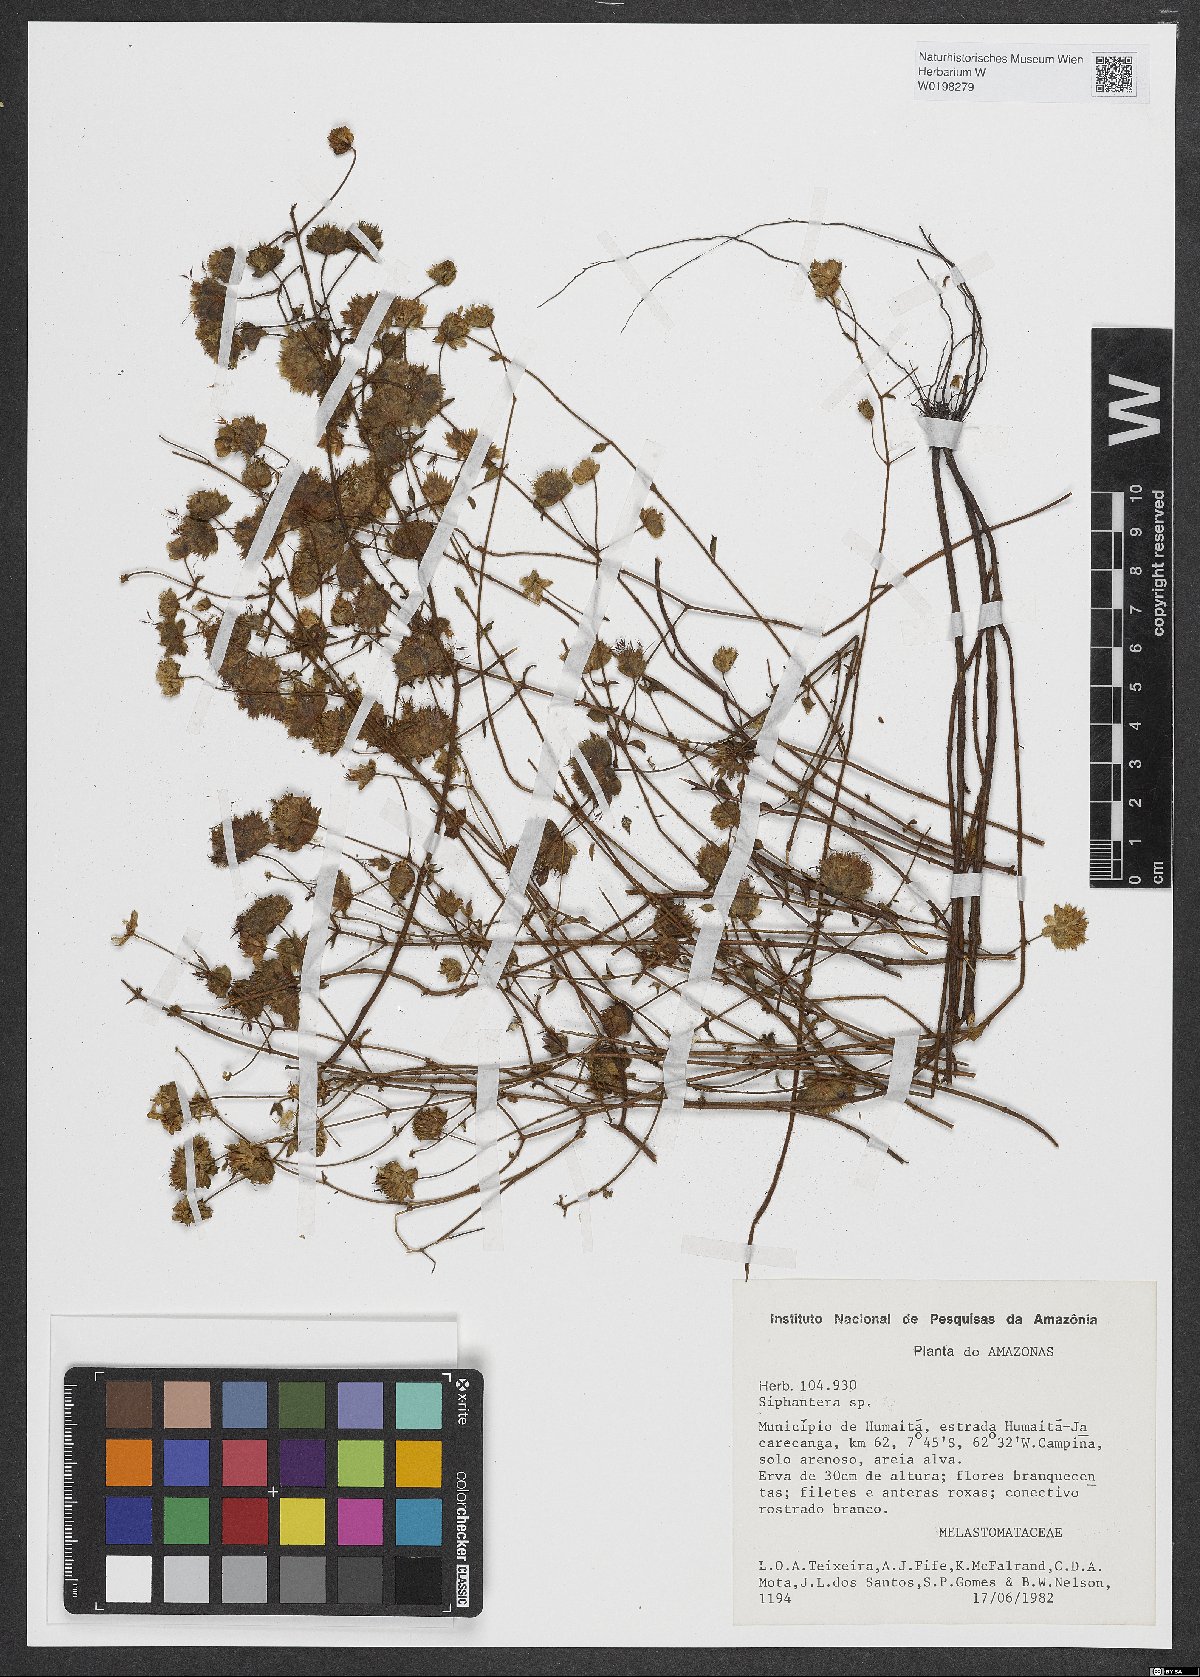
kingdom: Plantae
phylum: Tracheophyta
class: Magnoliopsida
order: Myrtales
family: Melastomataceae
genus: Siphanthera
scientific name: Siphanthera
